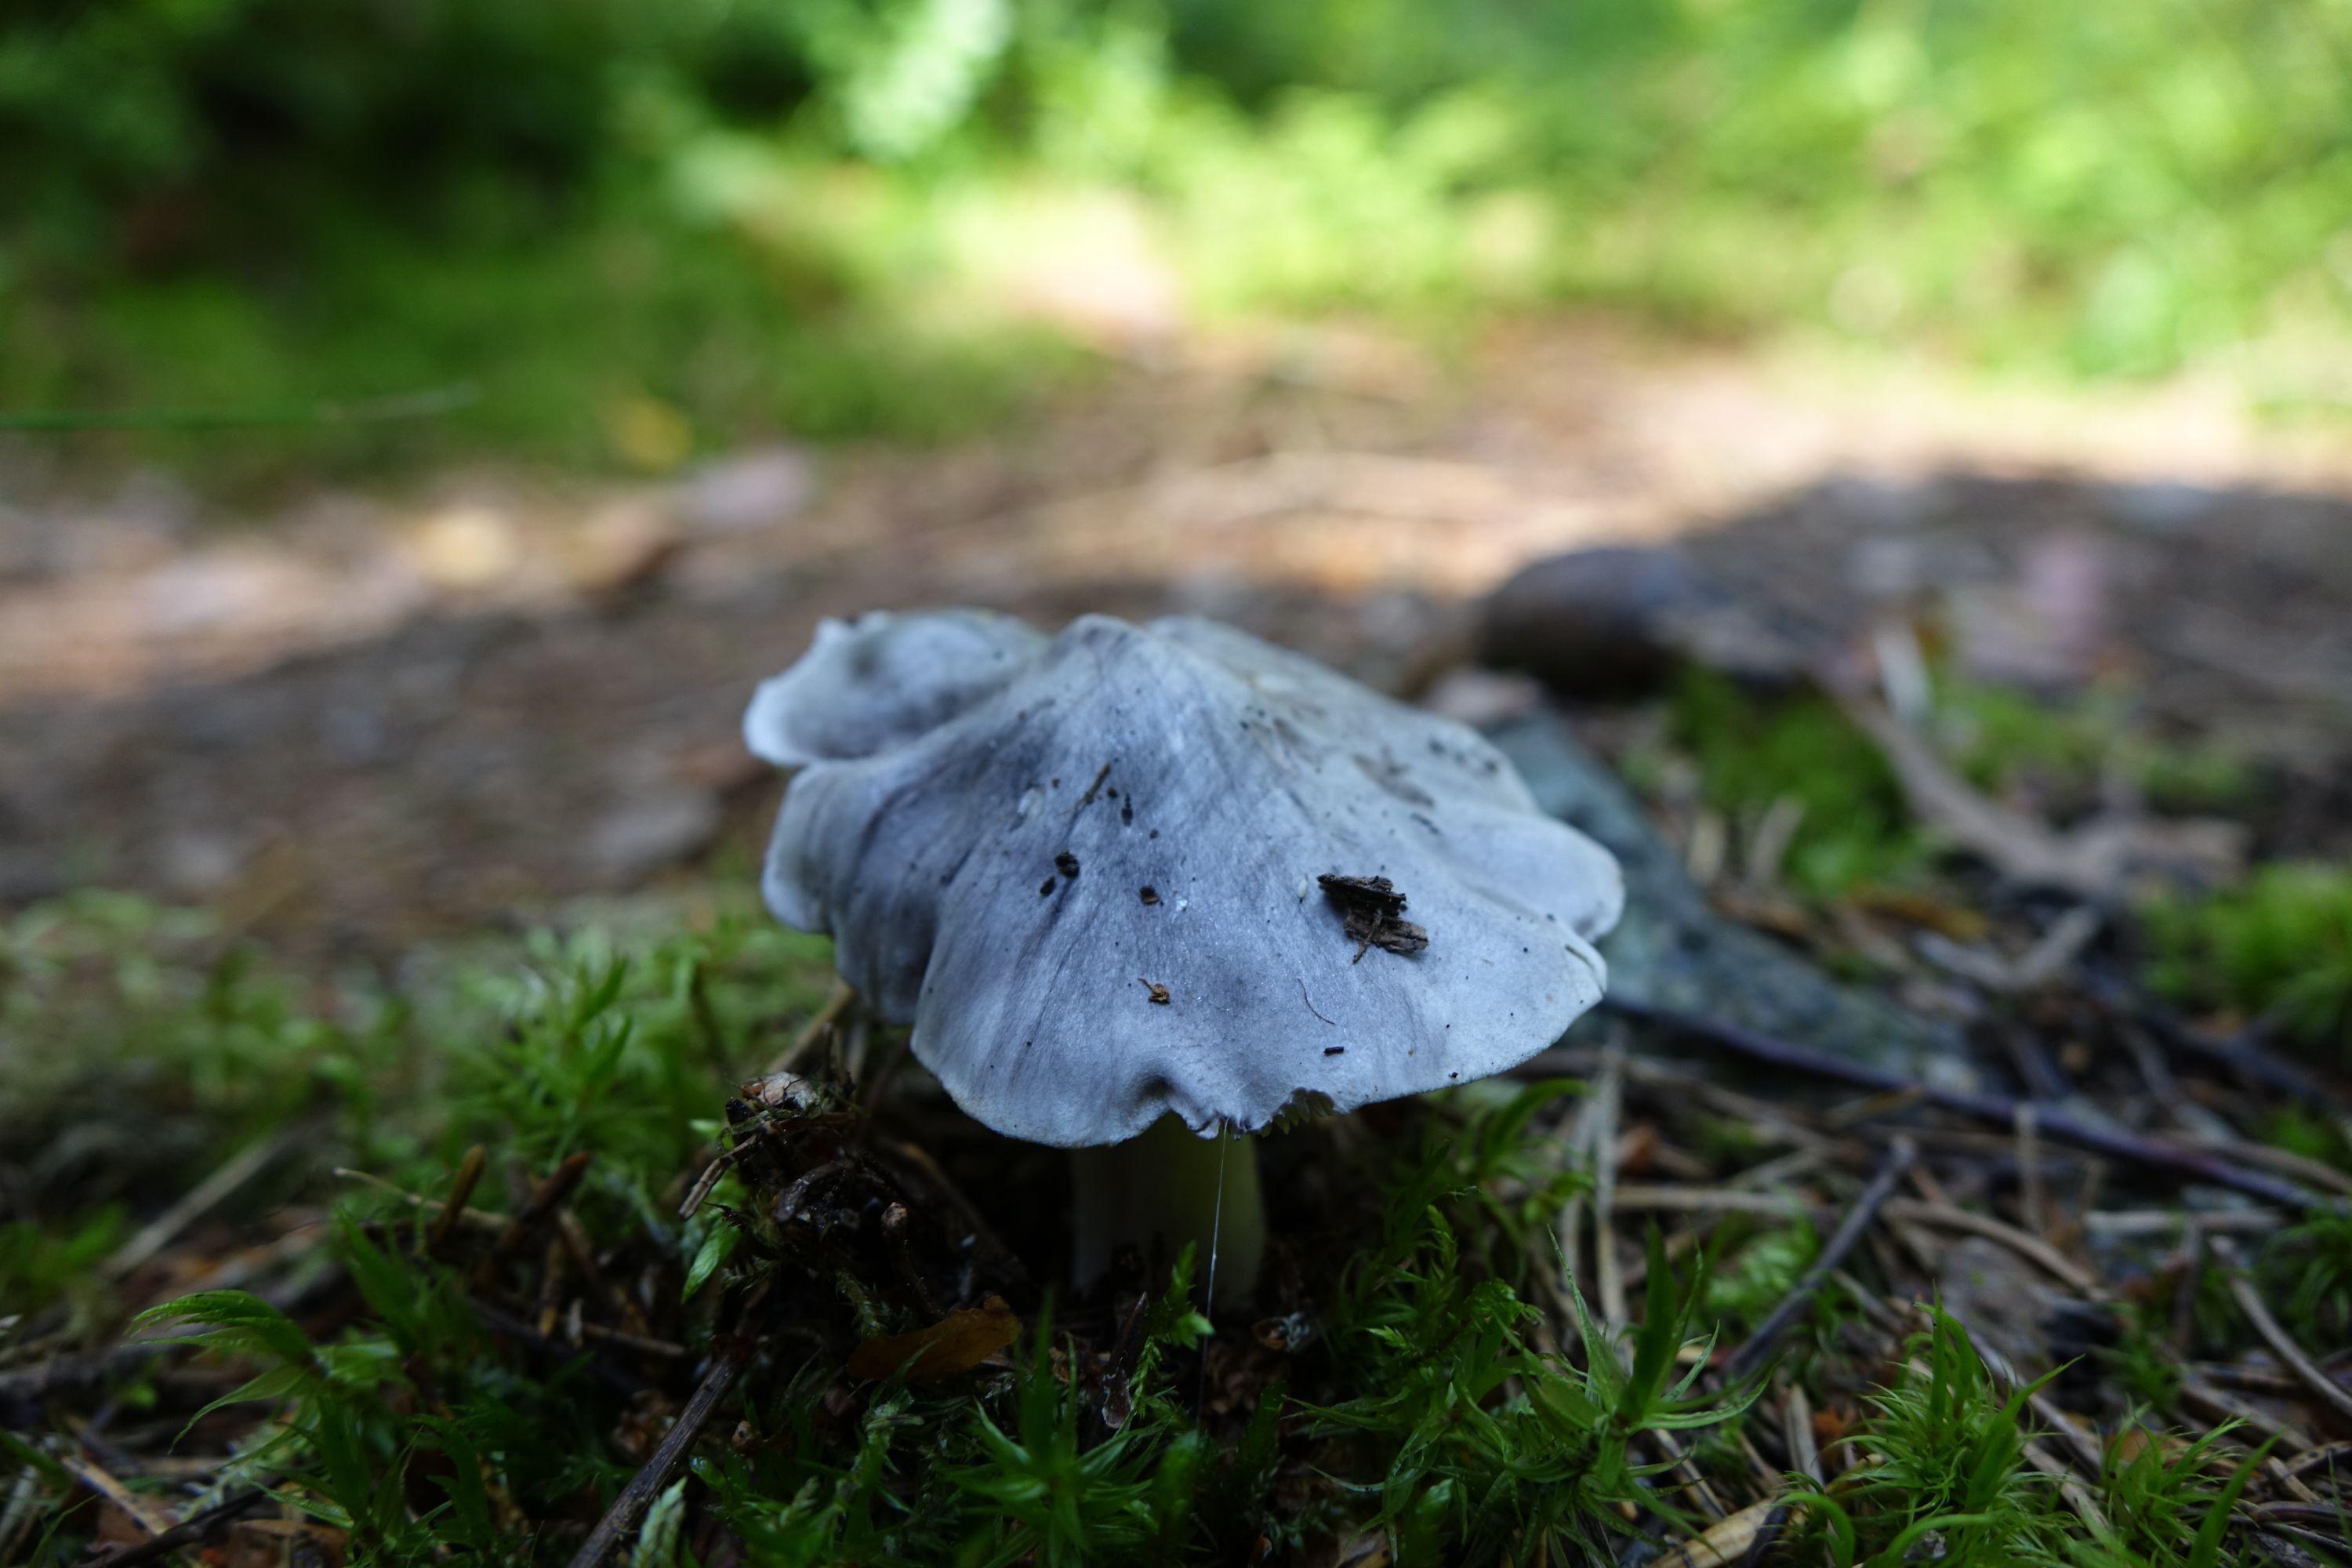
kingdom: Fungi
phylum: Basidiomycota
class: Agaricomycetes
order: Agaricales
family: Tricholomataceae
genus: Tricholoma
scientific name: Tricholoma virgatum
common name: Ashen knight
